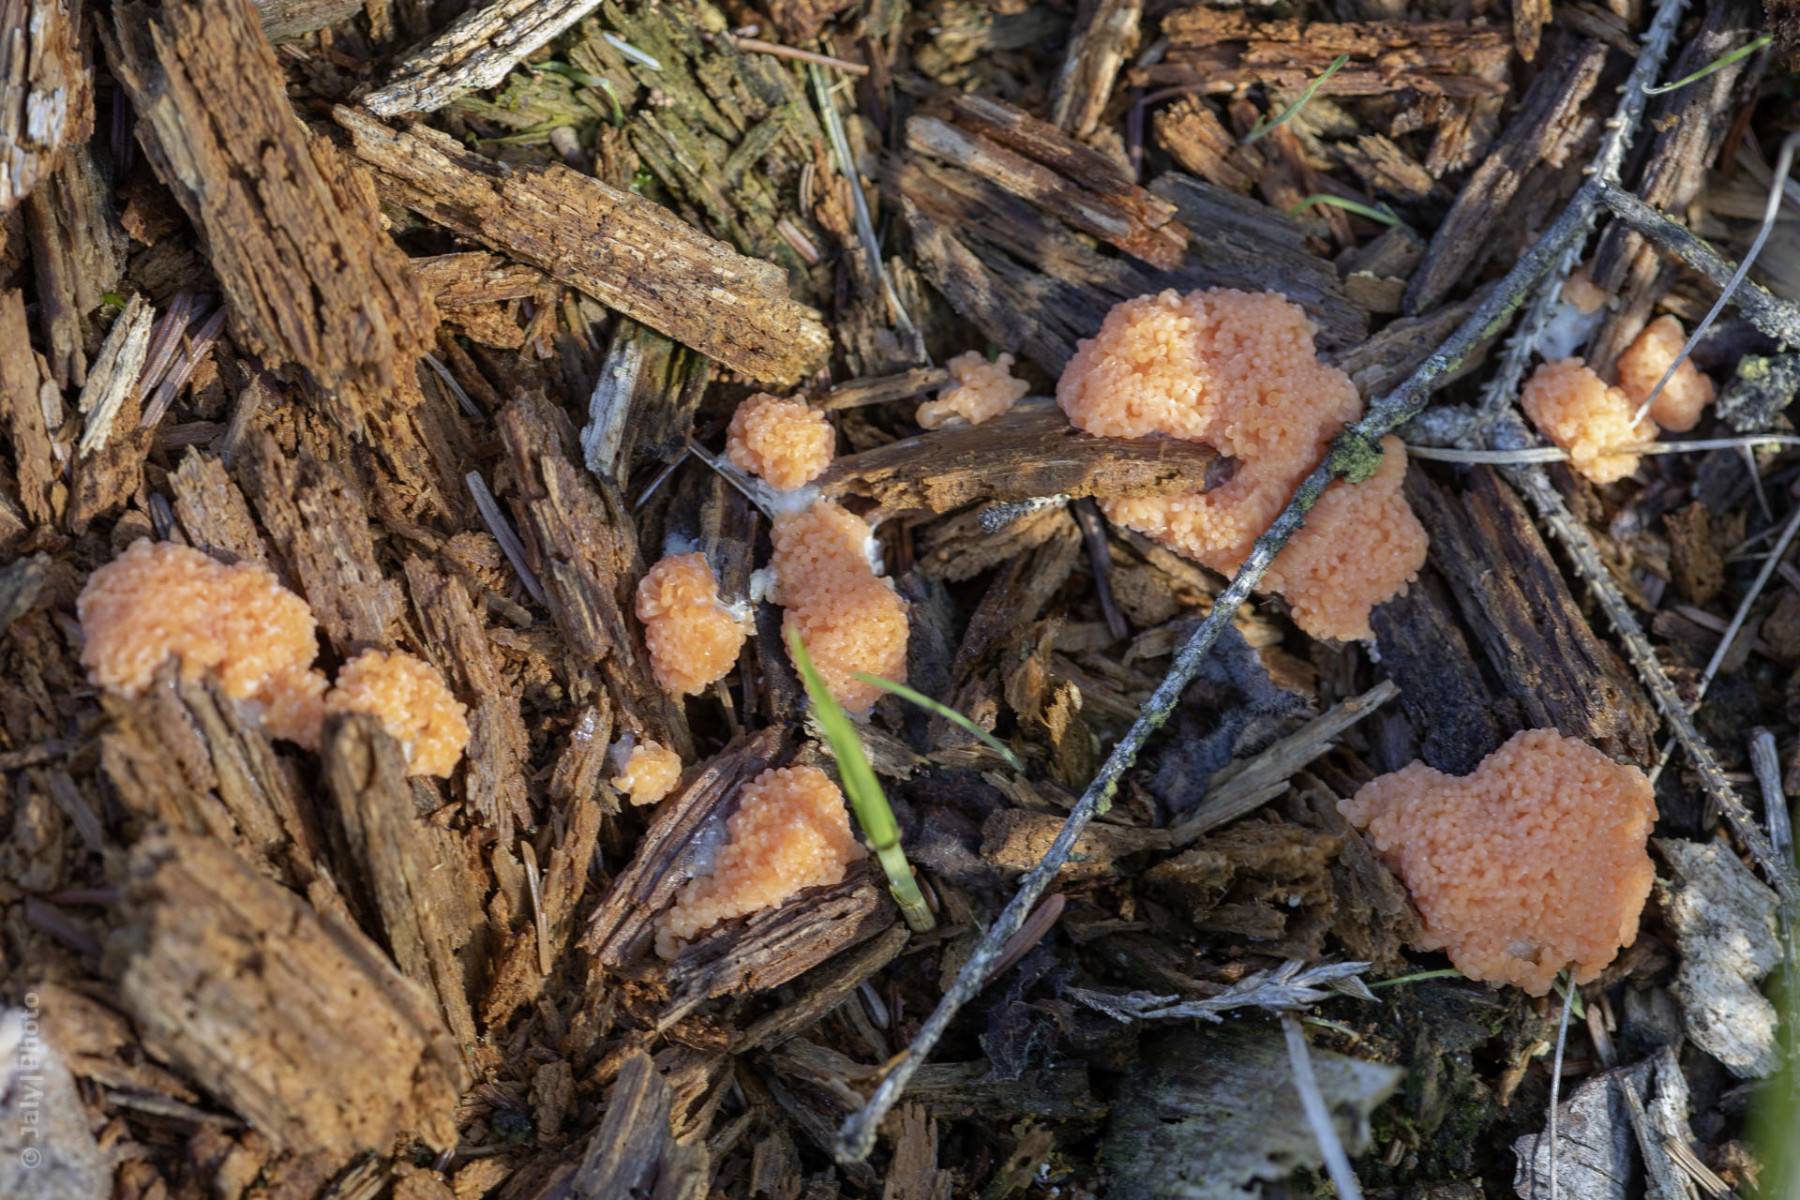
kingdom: Protozoa
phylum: Mycetozoa
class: Myxomycetes
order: Cribrariales
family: Tubiferaceae
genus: Tubifera
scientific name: Tubifera ferruginosa
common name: kanel-støvrør
